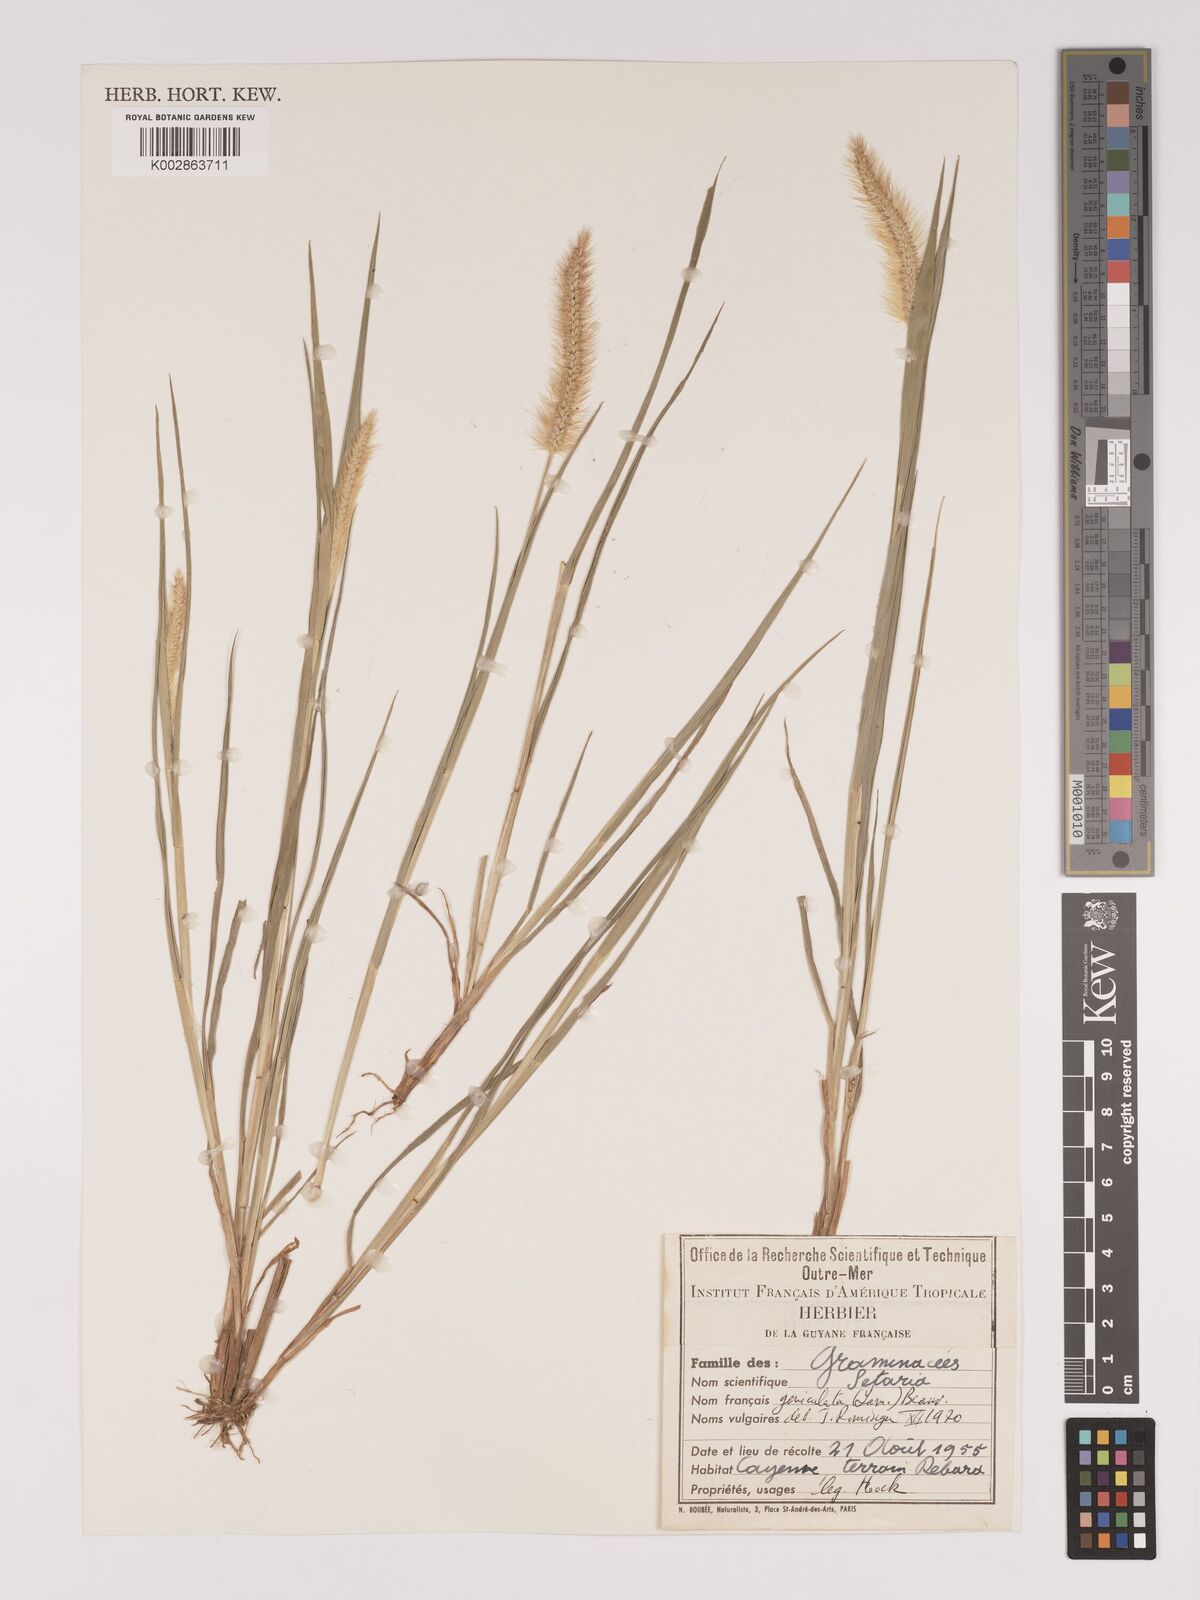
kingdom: Plantae
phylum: Tracheophyta
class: Liliopsida
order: Poales
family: Poaceae
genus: Setaria
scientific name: Setaria parviflora
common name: Knotroot bristle-grass
